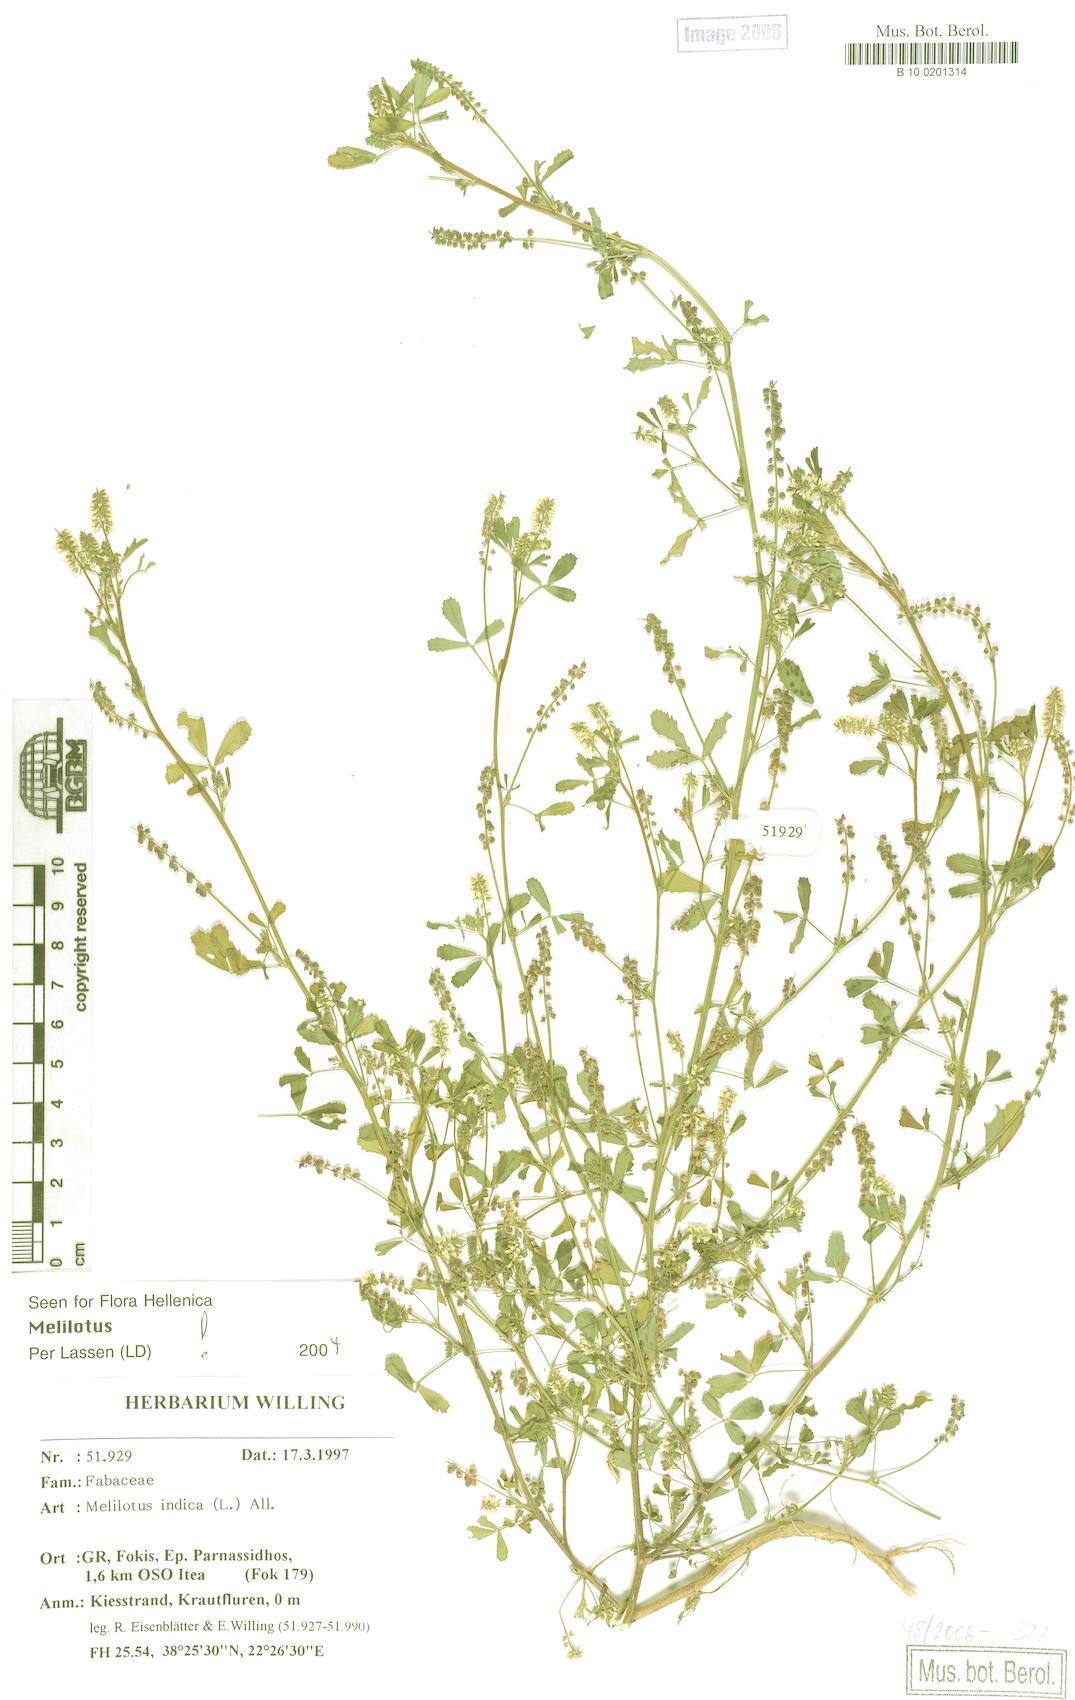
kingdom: Plantae
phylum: Tracheophyta
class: Magnoliopsida
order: Fabales
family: Fabaceae
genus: Melilotus
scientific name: Melilotus indicus
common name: Small melilot
